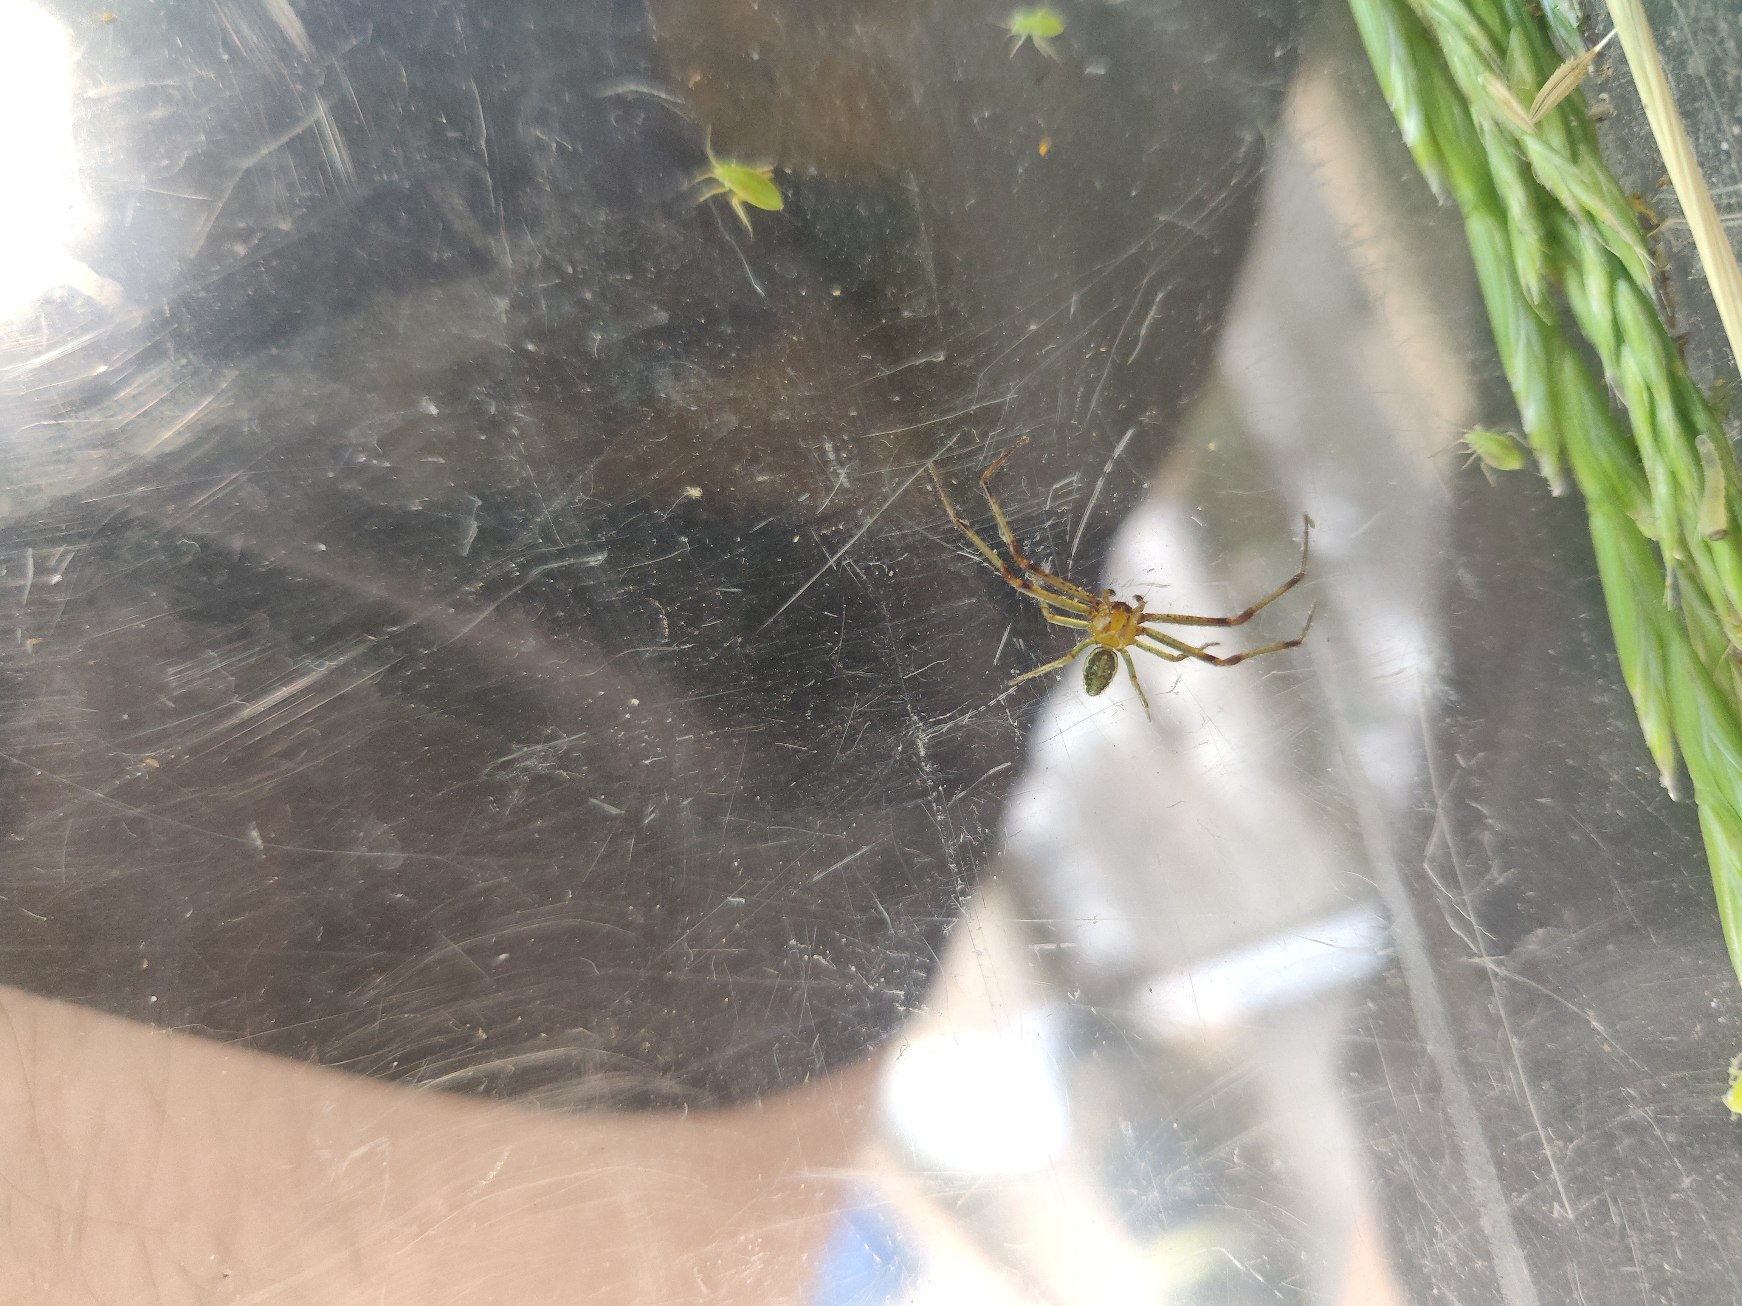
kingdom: Animalia
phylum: Arthropoda
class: Arachnida
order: Araneae
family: Thomisidae
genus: Diaea
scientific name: Diaea dorsata
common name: Grøn krabbeedderkop
